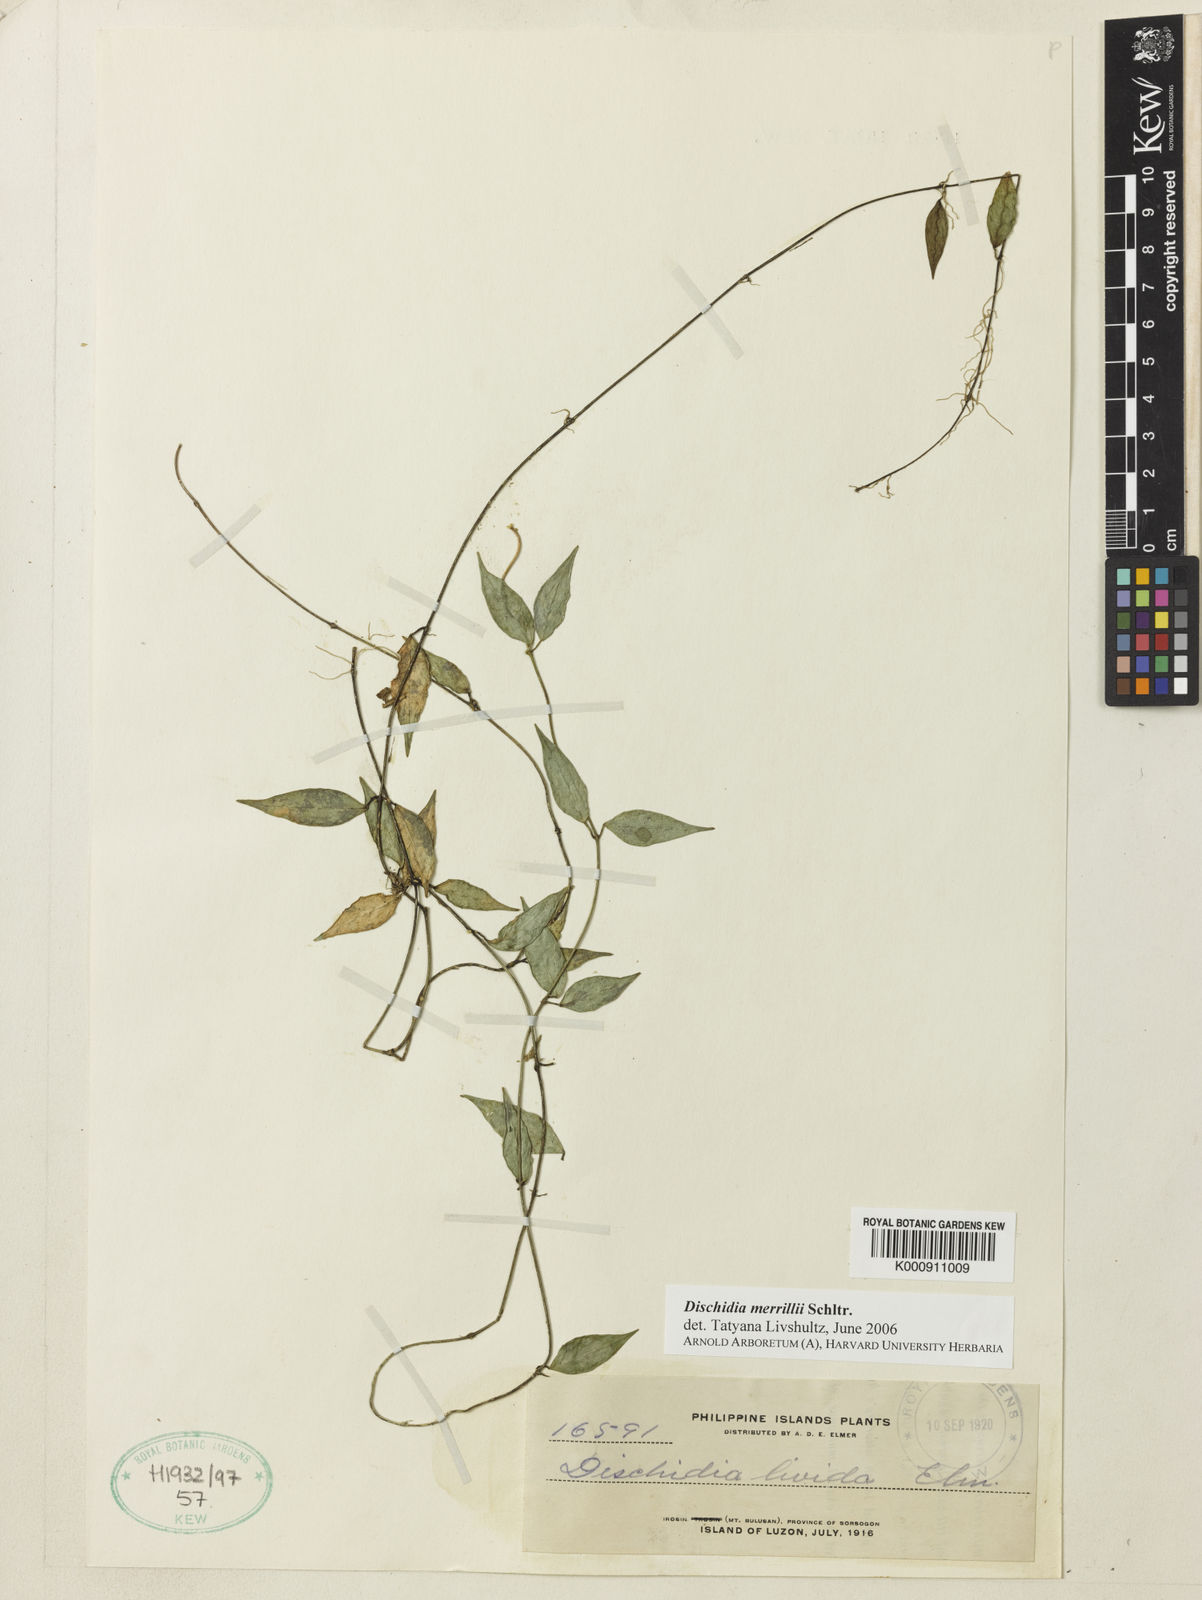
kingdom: Plantae
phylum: Tracheophyta
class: Magnoliopsida
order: Gentianales
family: Apocynaceae
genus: Dischidia
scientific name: Dischidia merrillii
